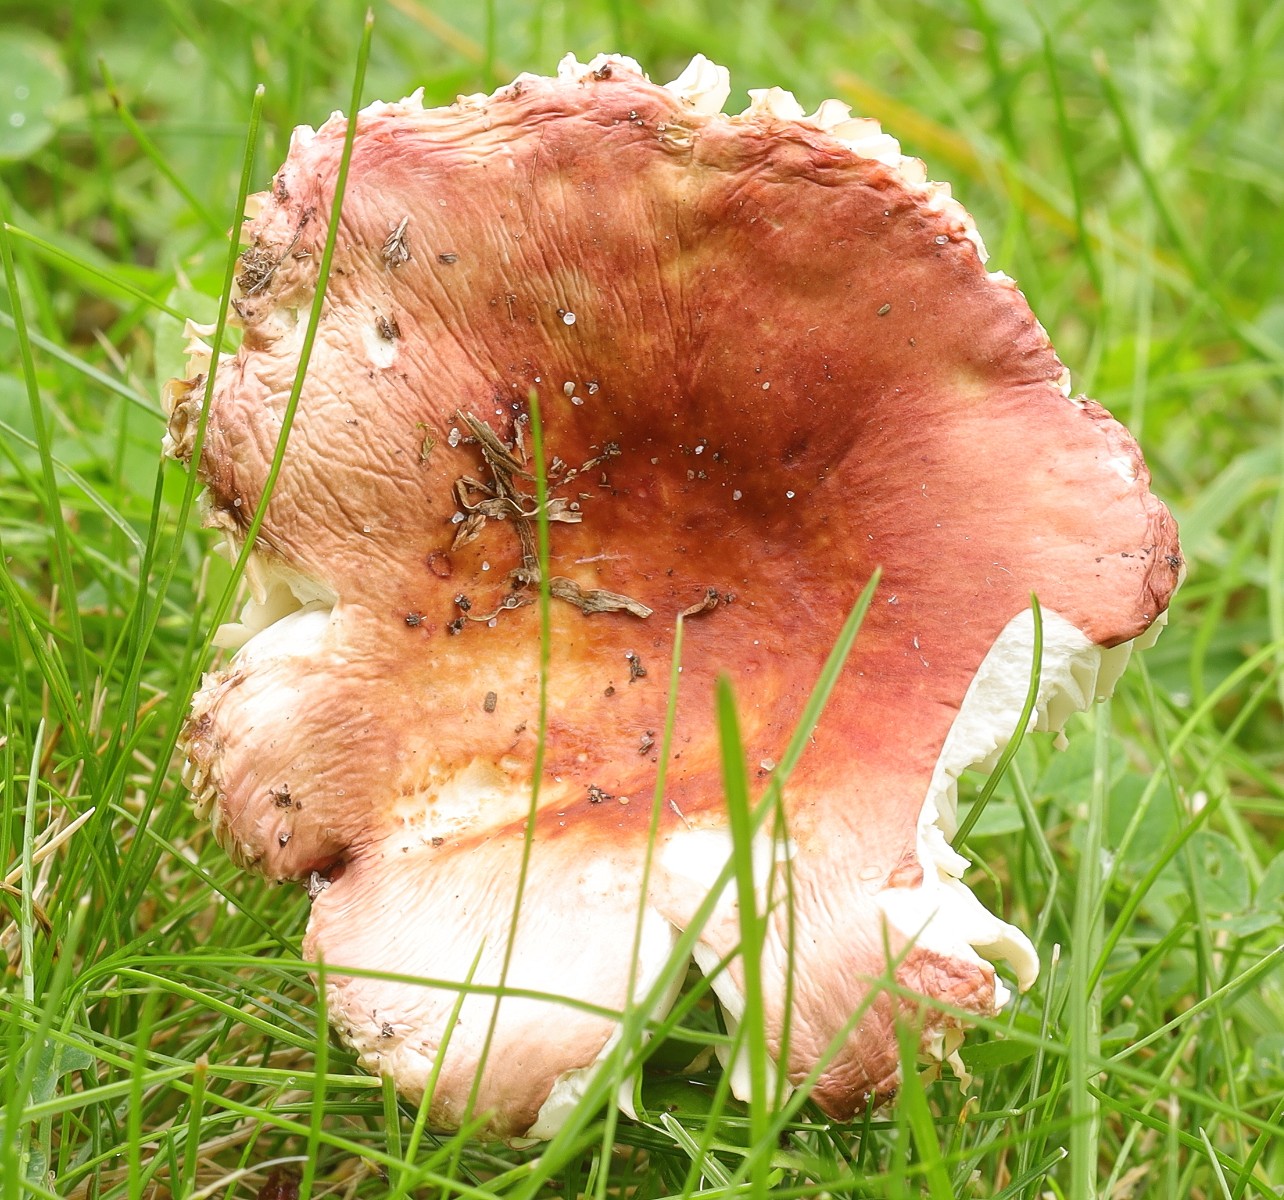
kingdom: Fungi
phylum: Basidiomycota
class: Agaricomycetes
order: Russulales
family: Russulaceae
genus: Russula
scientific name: Russula
